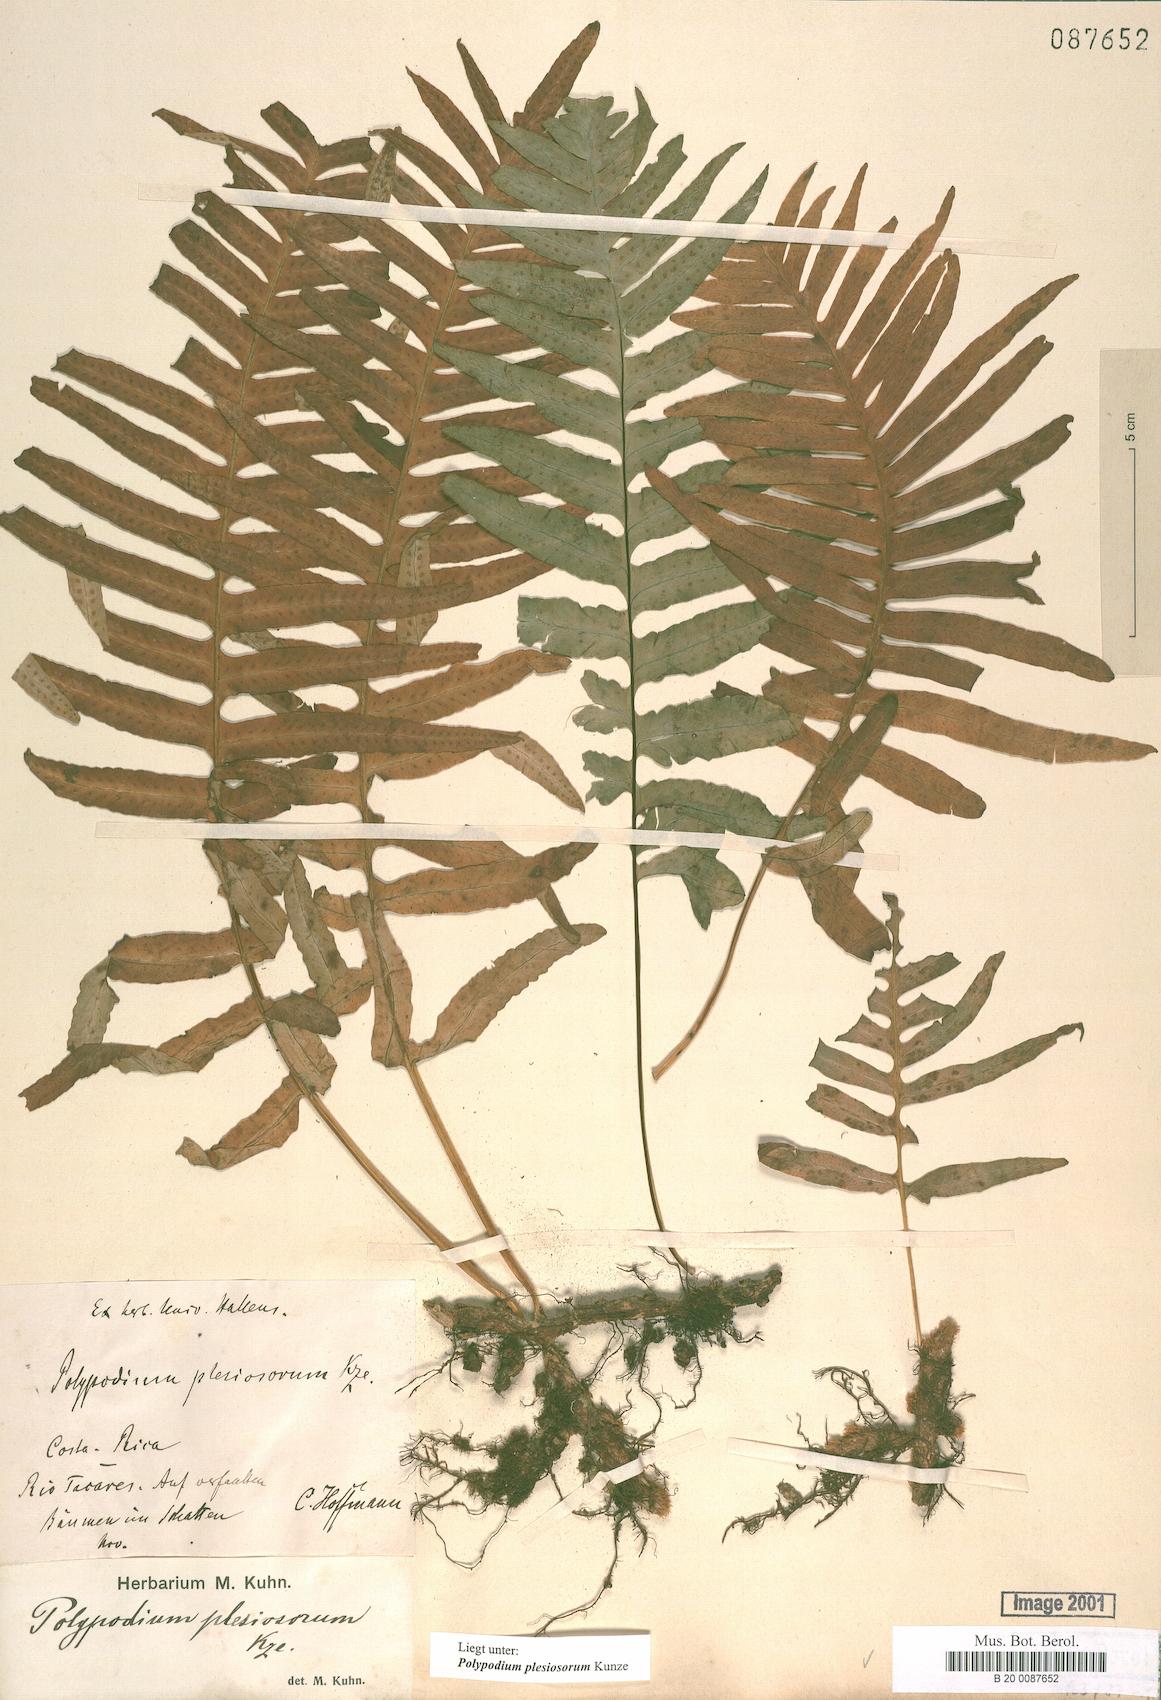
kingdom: Plantae
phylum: Tracheophyta
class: Polypodiopsida
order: Polypodiales
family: Polypodiaceae
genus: Polypodium
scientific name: Polypodium plesiosorum
